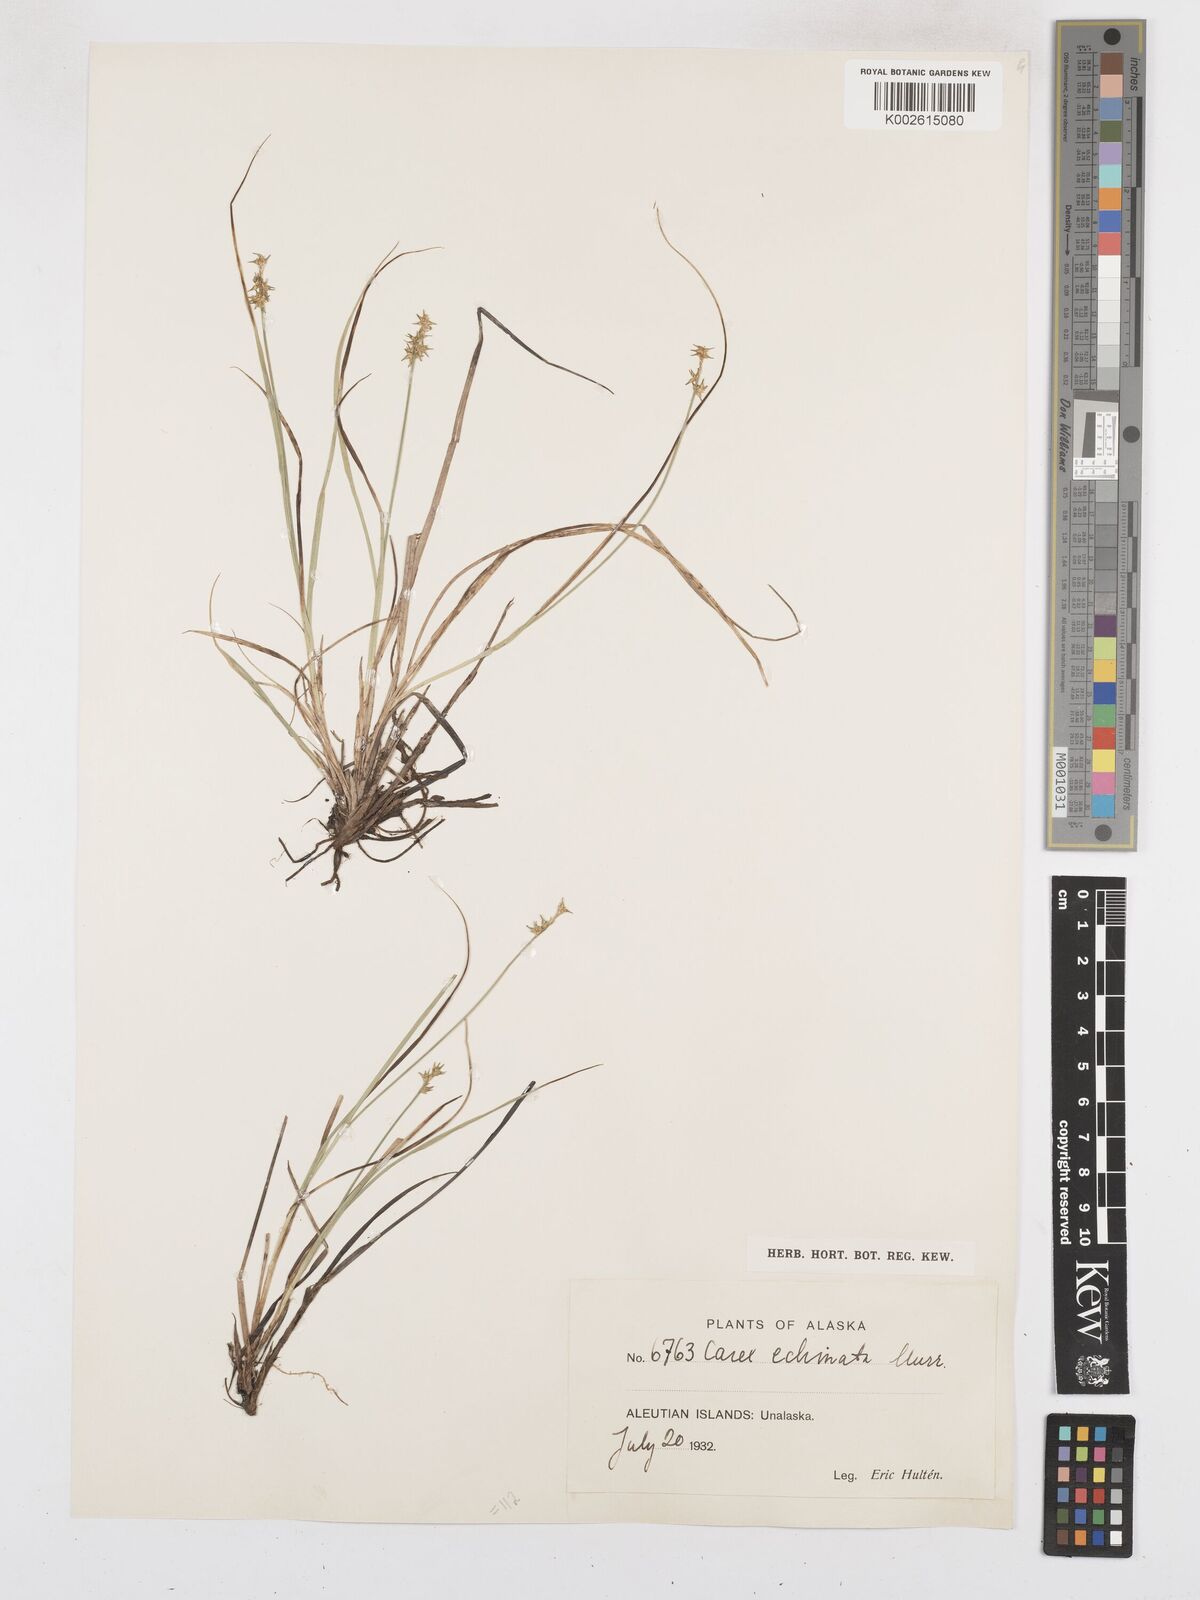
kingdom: Plantae
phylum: Tracheophyta
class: Liliopsida
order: Poales
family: Cyperaceae
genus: Carex
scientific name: Carex echinata
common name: Star sedge
